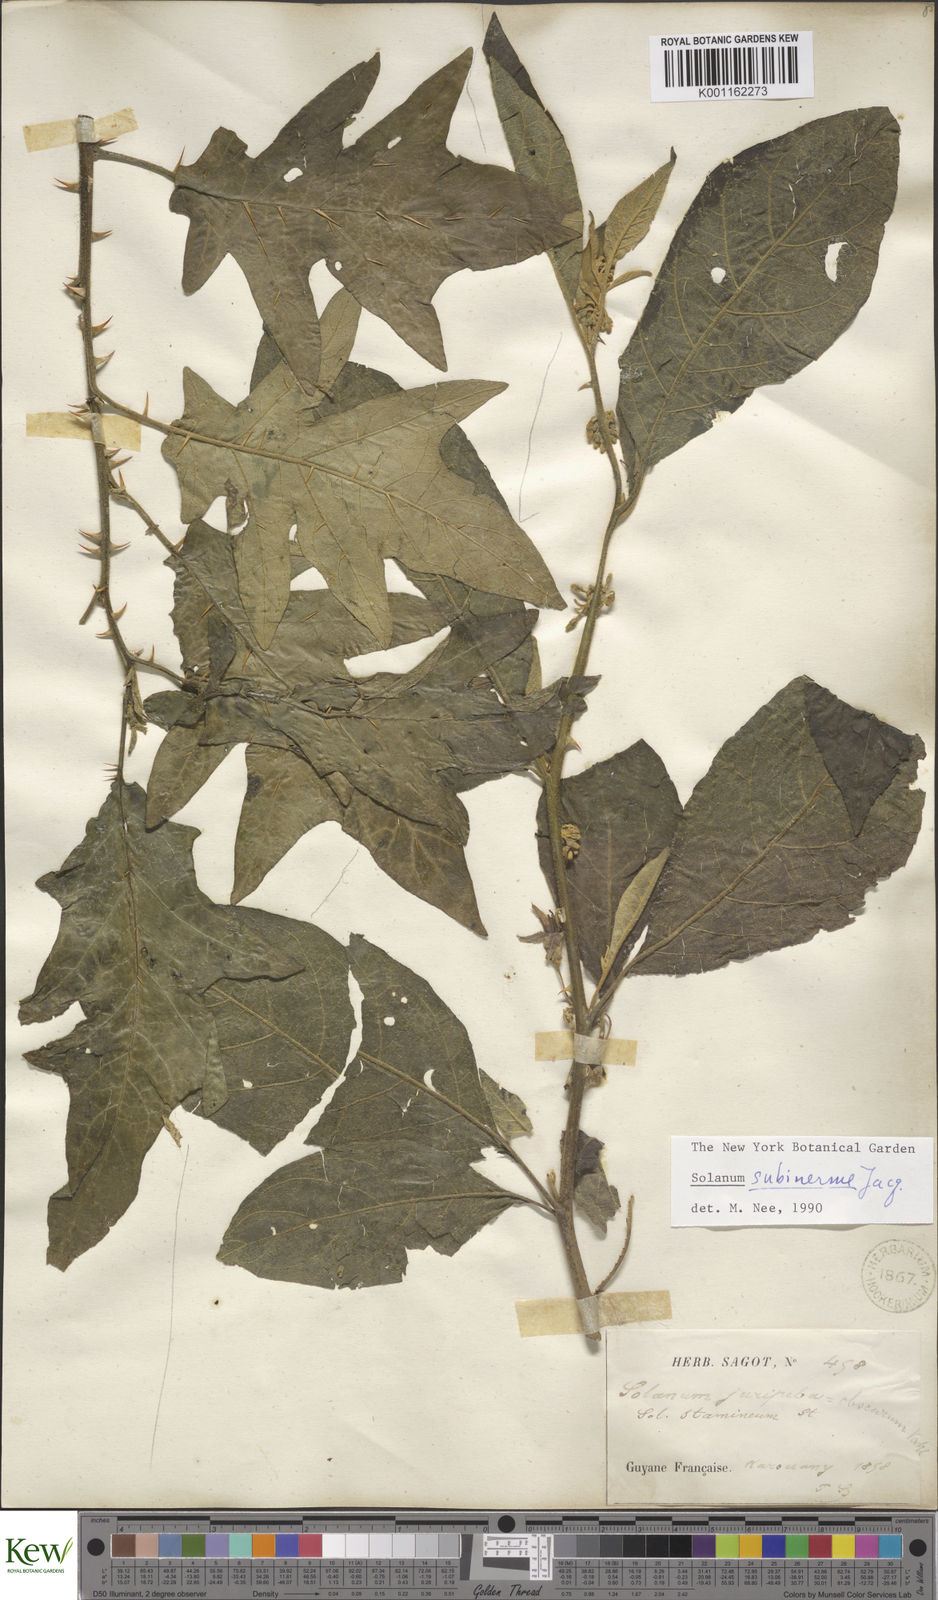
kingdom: Plantae
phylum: Tracheophyta
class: Magnoliopsida
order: Solanales
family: Solanaceae
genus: Solanum
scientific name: Solanum subinerme
